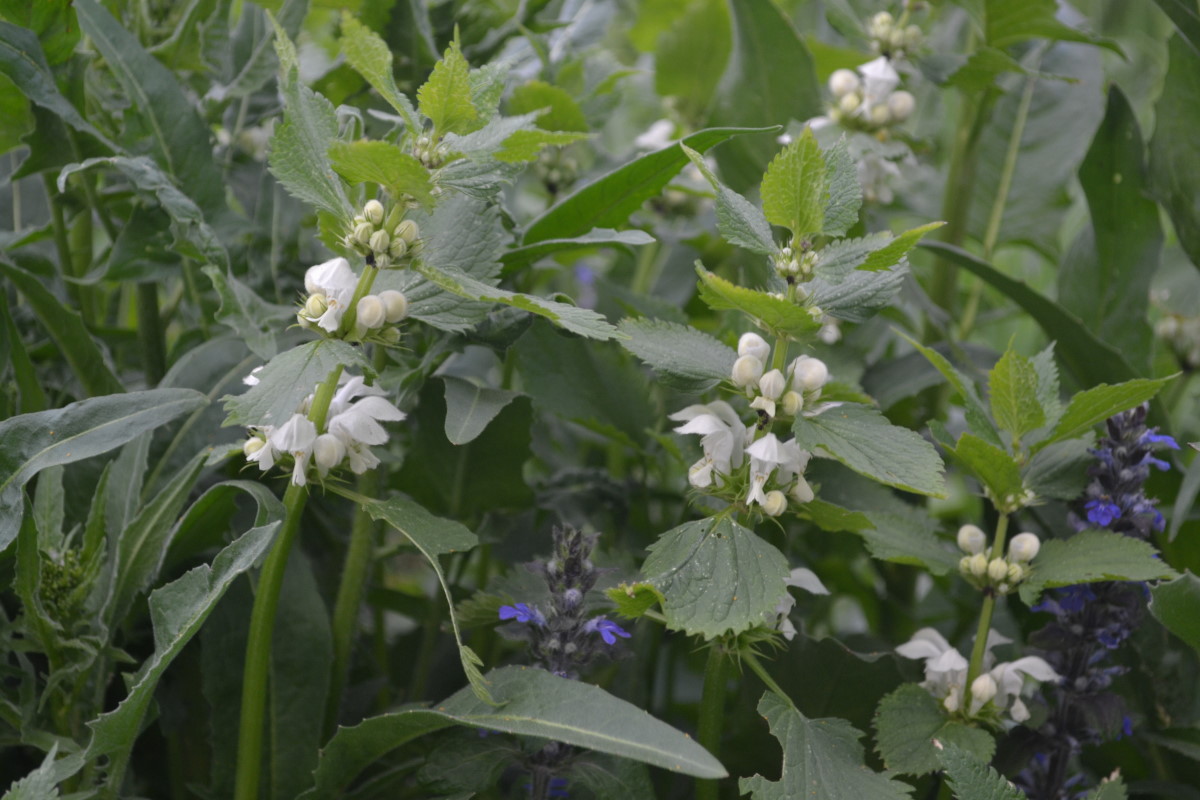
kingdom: Plantae
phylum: Tracheophyta
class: Magnoliopsida
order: Lamiales
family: Lamiaceae
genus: Lamium
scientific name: Lamium album
